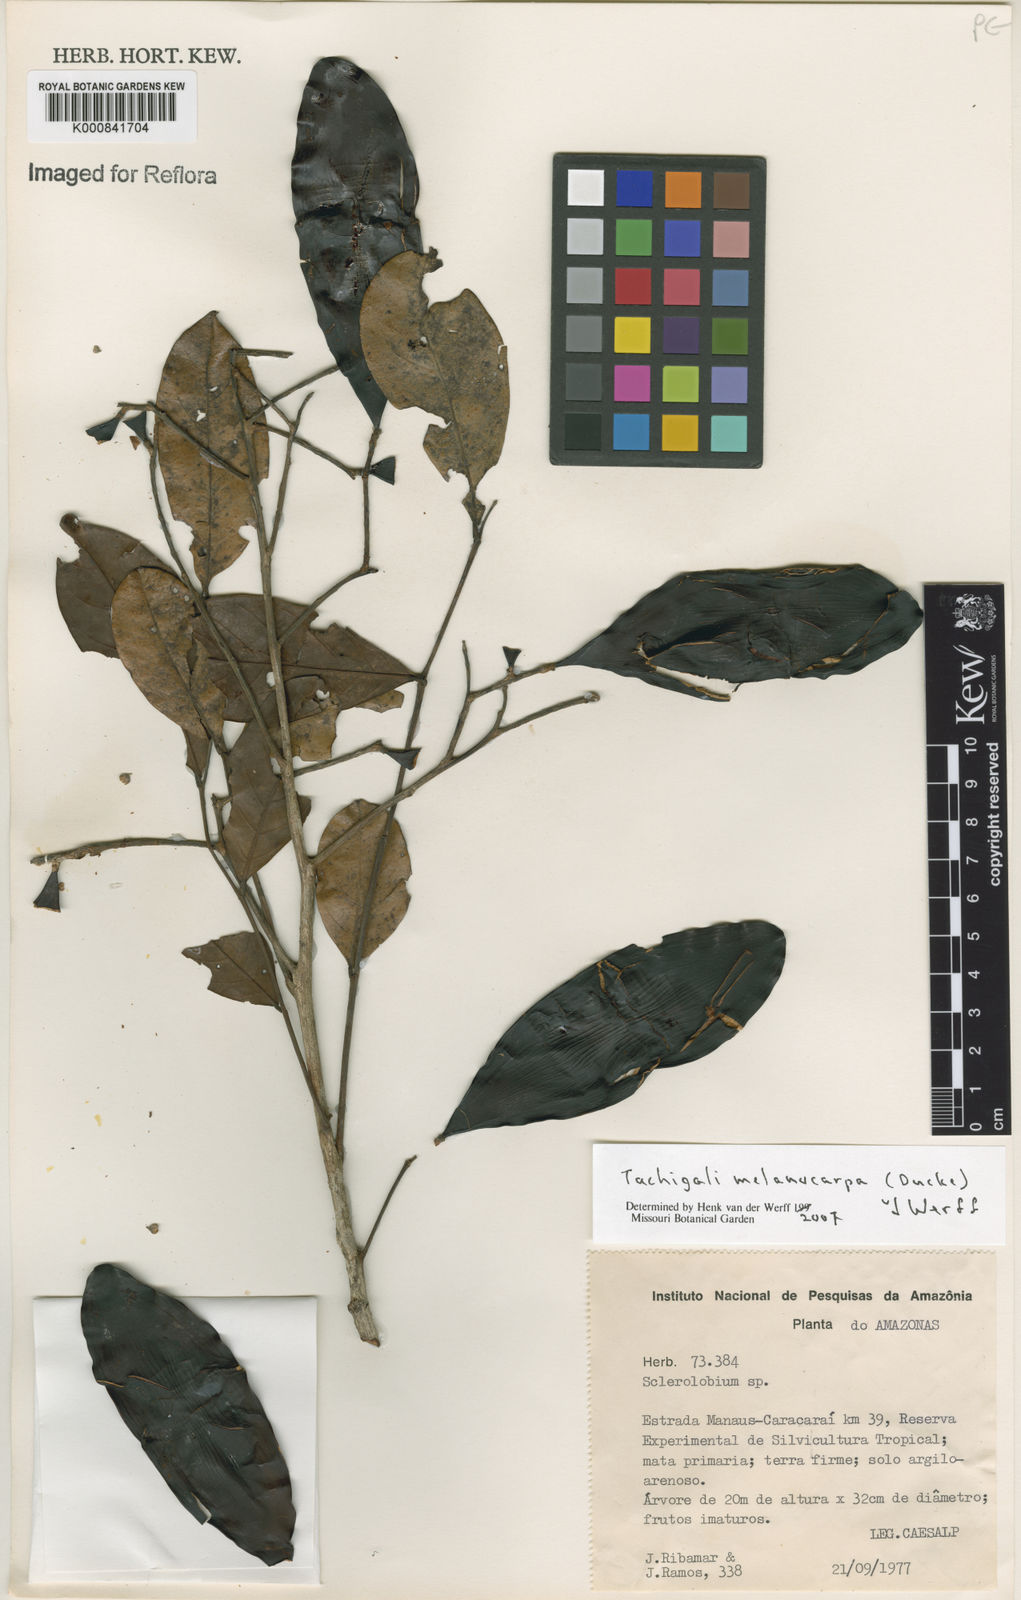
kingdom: Plantae
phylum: Tracheophyta
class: Magnoliopsida
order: Fabales
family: Fabaceae
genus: Tachigali
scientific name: Tachigali melanocarpa
